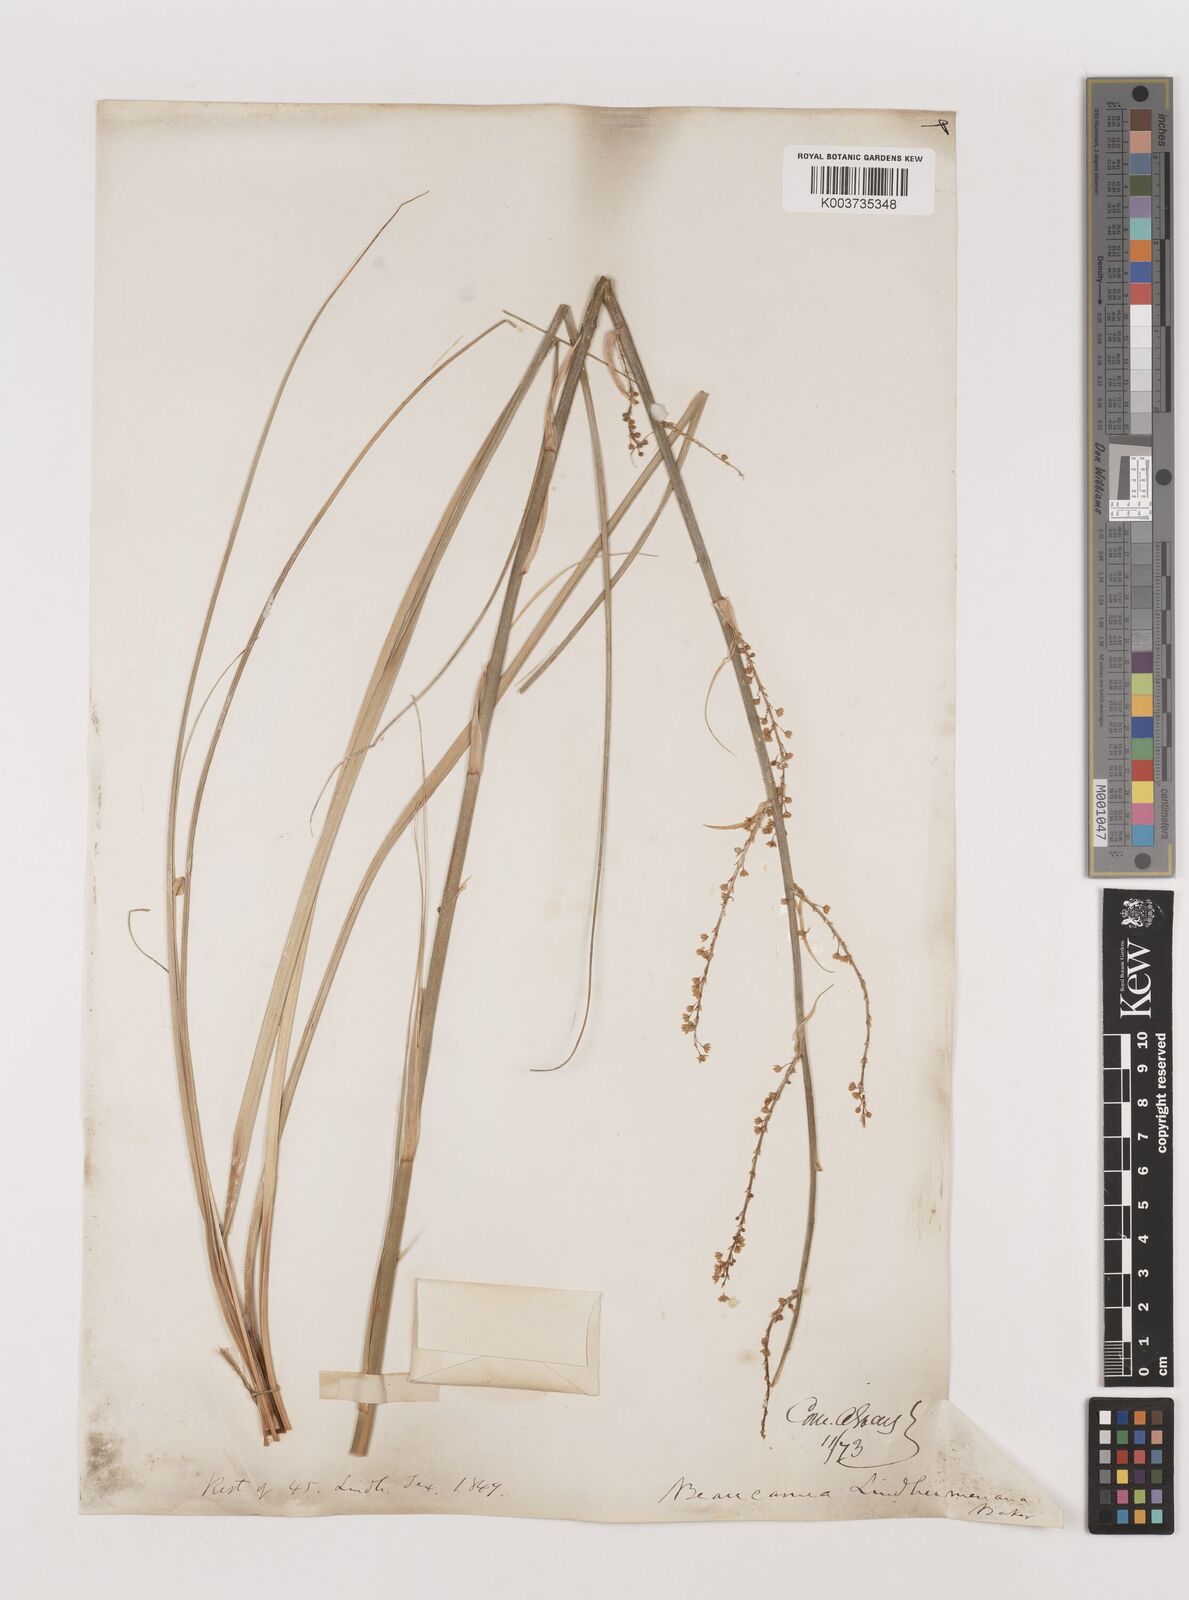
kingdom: Plantae
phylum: Tracheophyta
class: Liliopsida
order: Asparagales
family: Asparagaceae
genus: Nolina
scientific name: Nolina lindheimeriana
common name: Lindheimer's bear-grass
